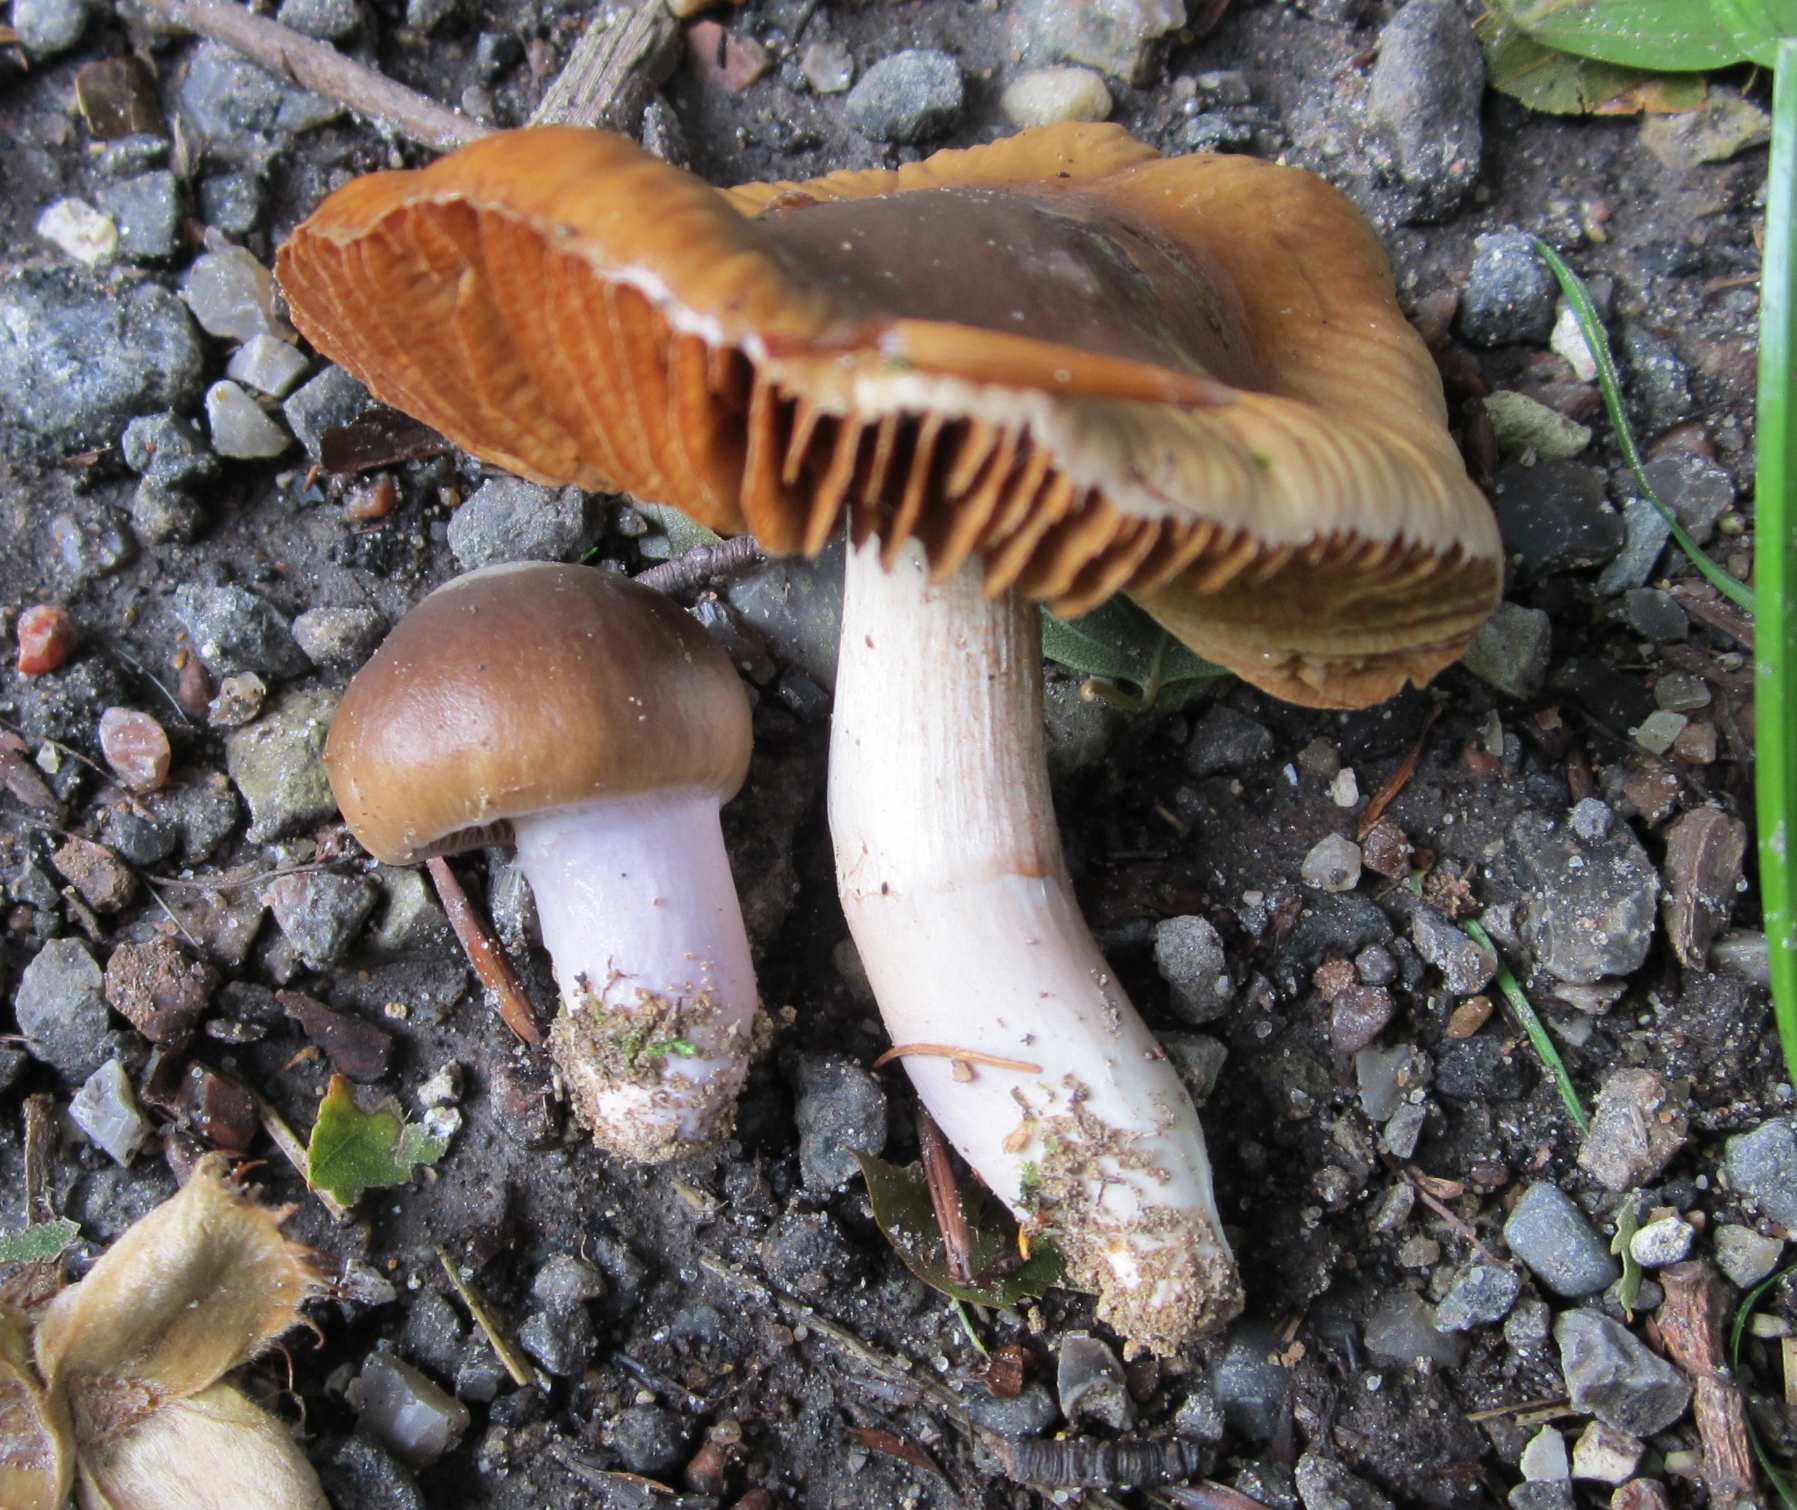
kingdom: Fungi
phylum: Basidiomycota
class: Agaricomycetes
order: Agaricales
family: Cortinariaceae
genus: Cortinarius
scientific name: Cortinarius elatior
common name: høj slørhat
